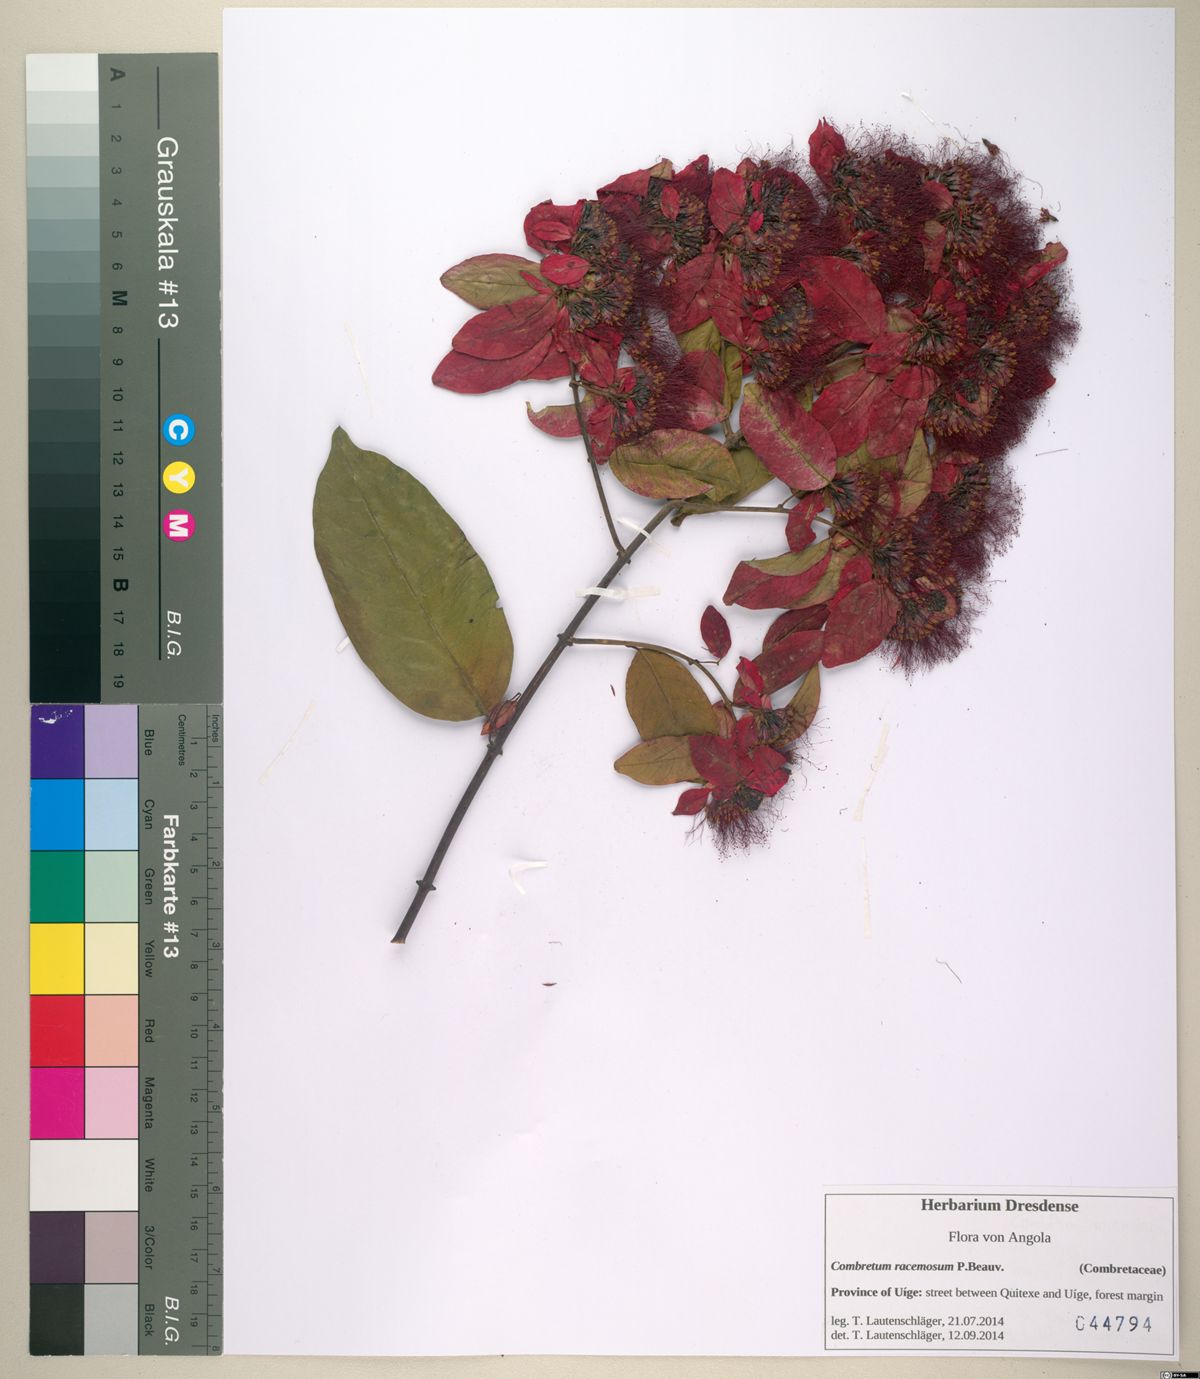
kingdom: Plantae
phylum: Tracheophyta
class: Magnoliopsida
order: Myrtales
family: Combretaceae
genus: Combretum
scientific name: Combretum racemosum
